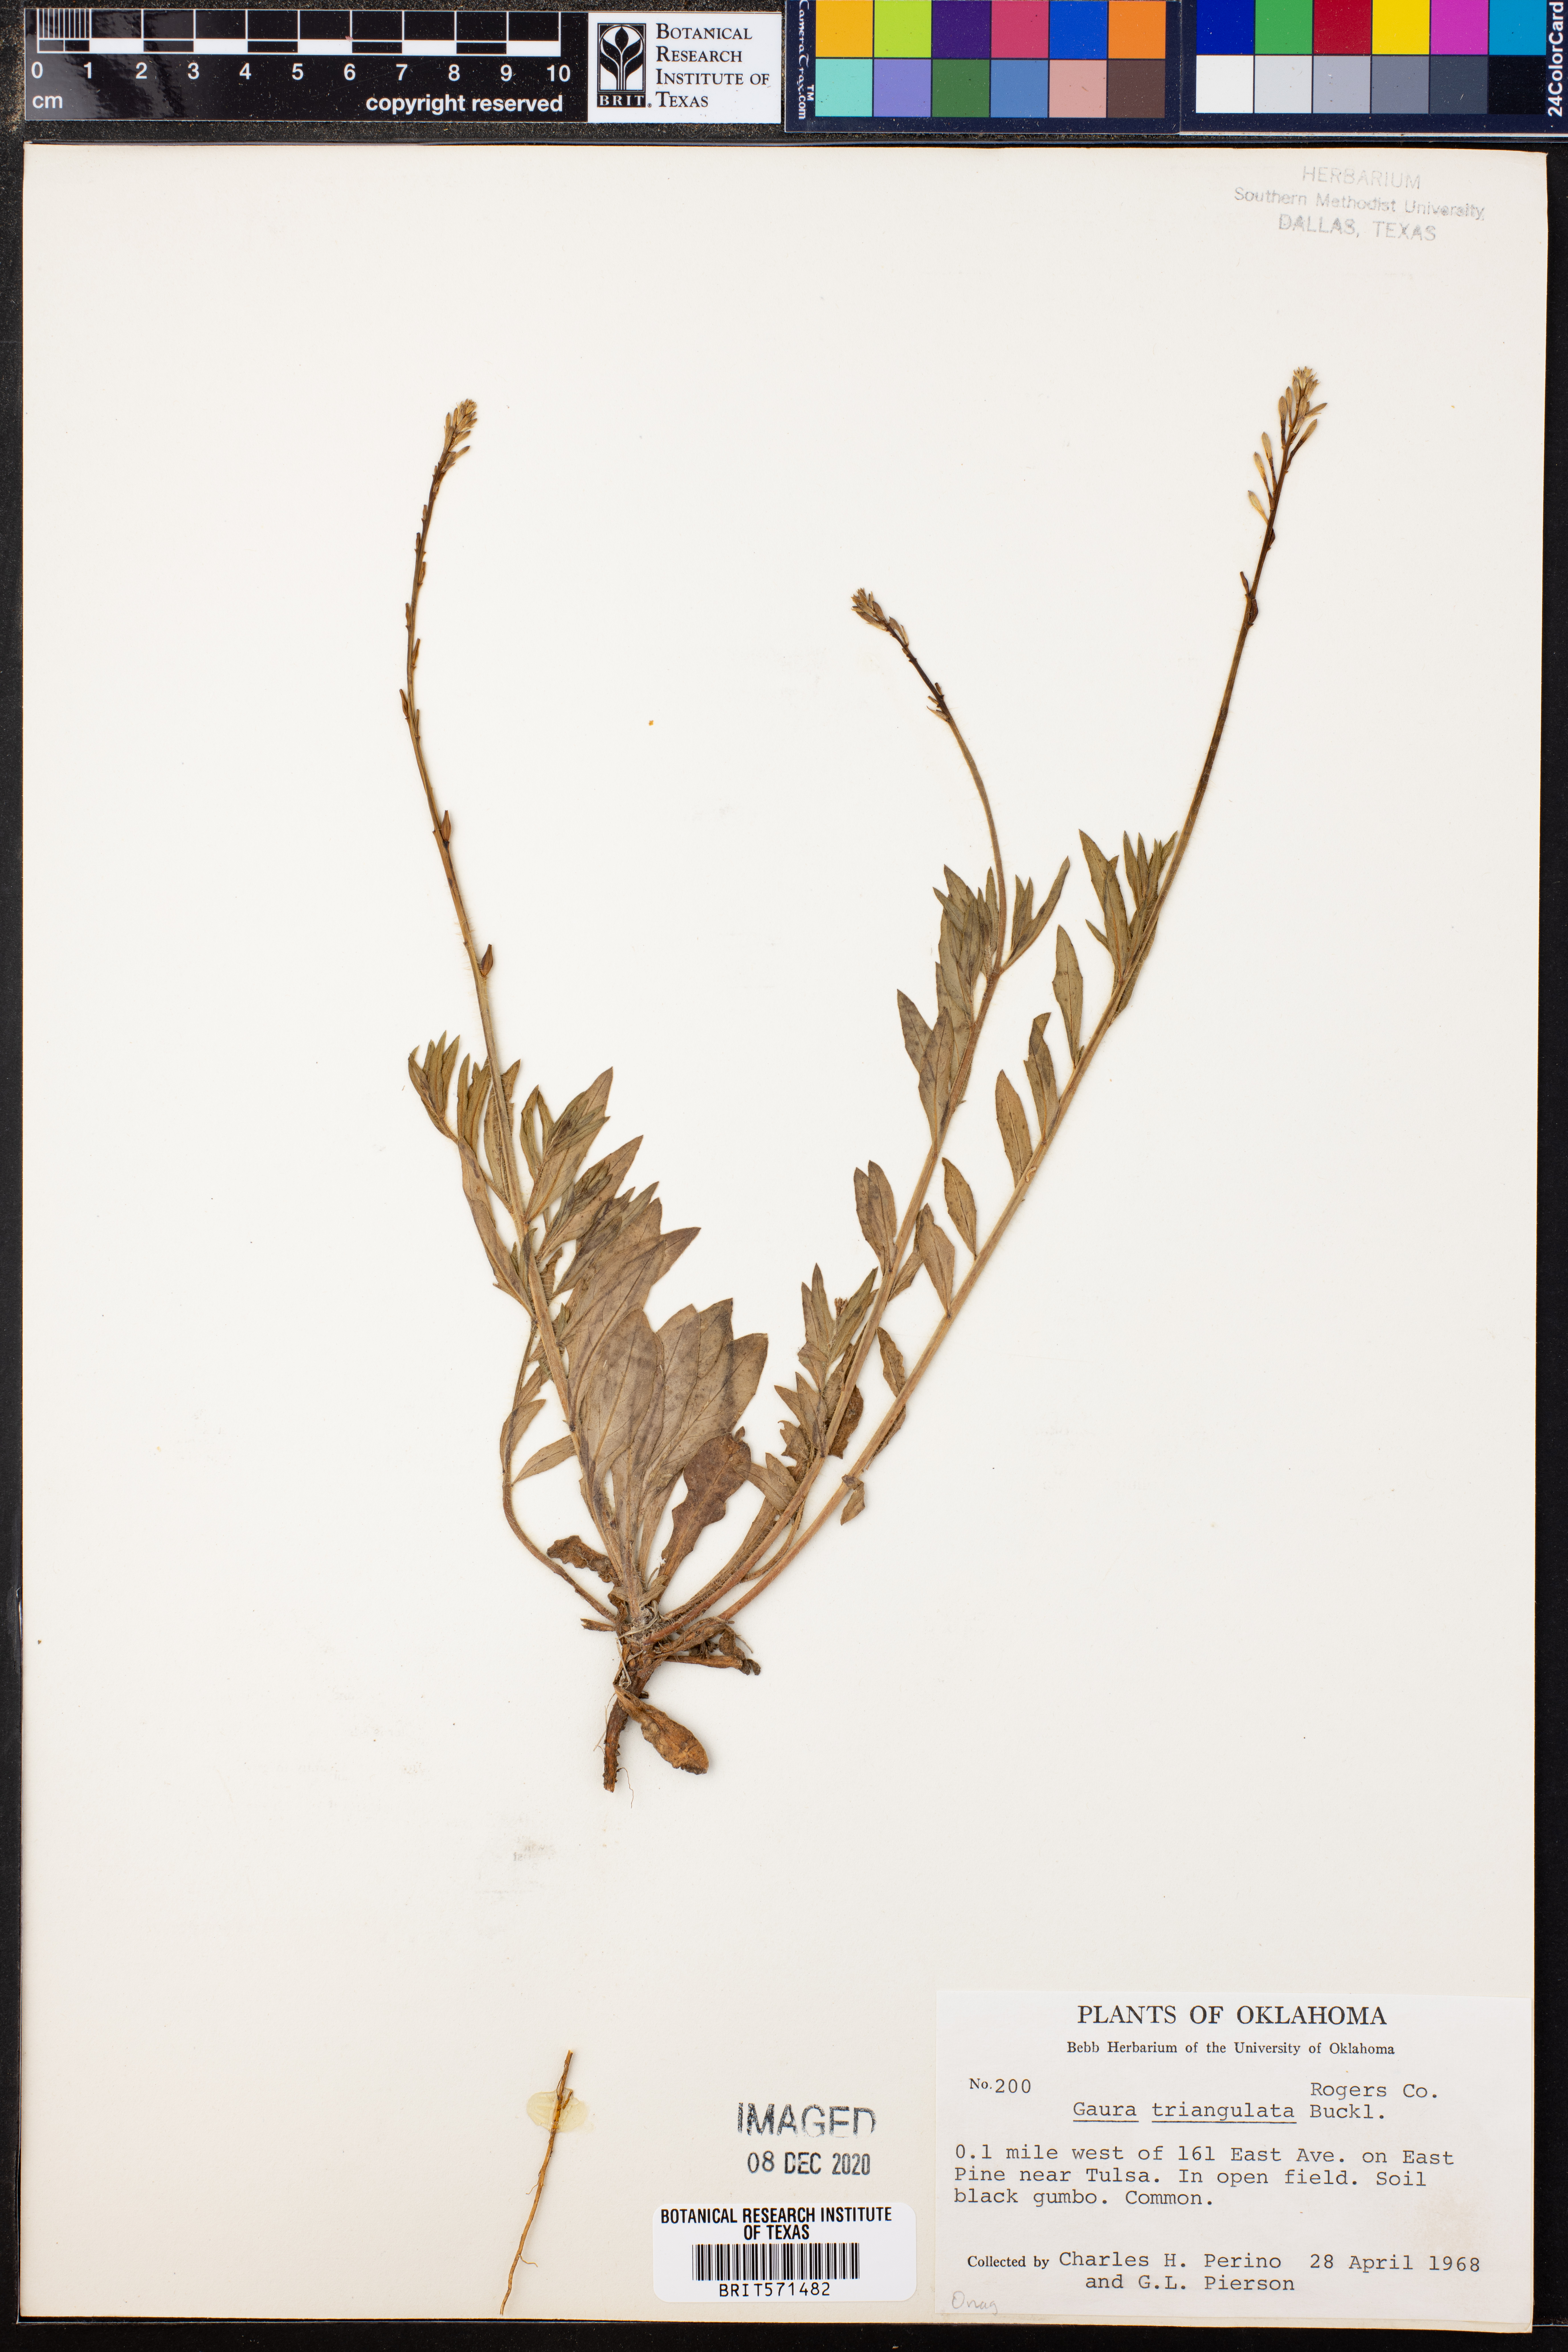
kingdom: Plantae
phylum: Tracheophyta
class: Magnoliopsida
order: Myrtales
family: Onagraceae
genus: Oenothera
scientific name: Oenothera triangulata
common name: Prairie beeblossom
